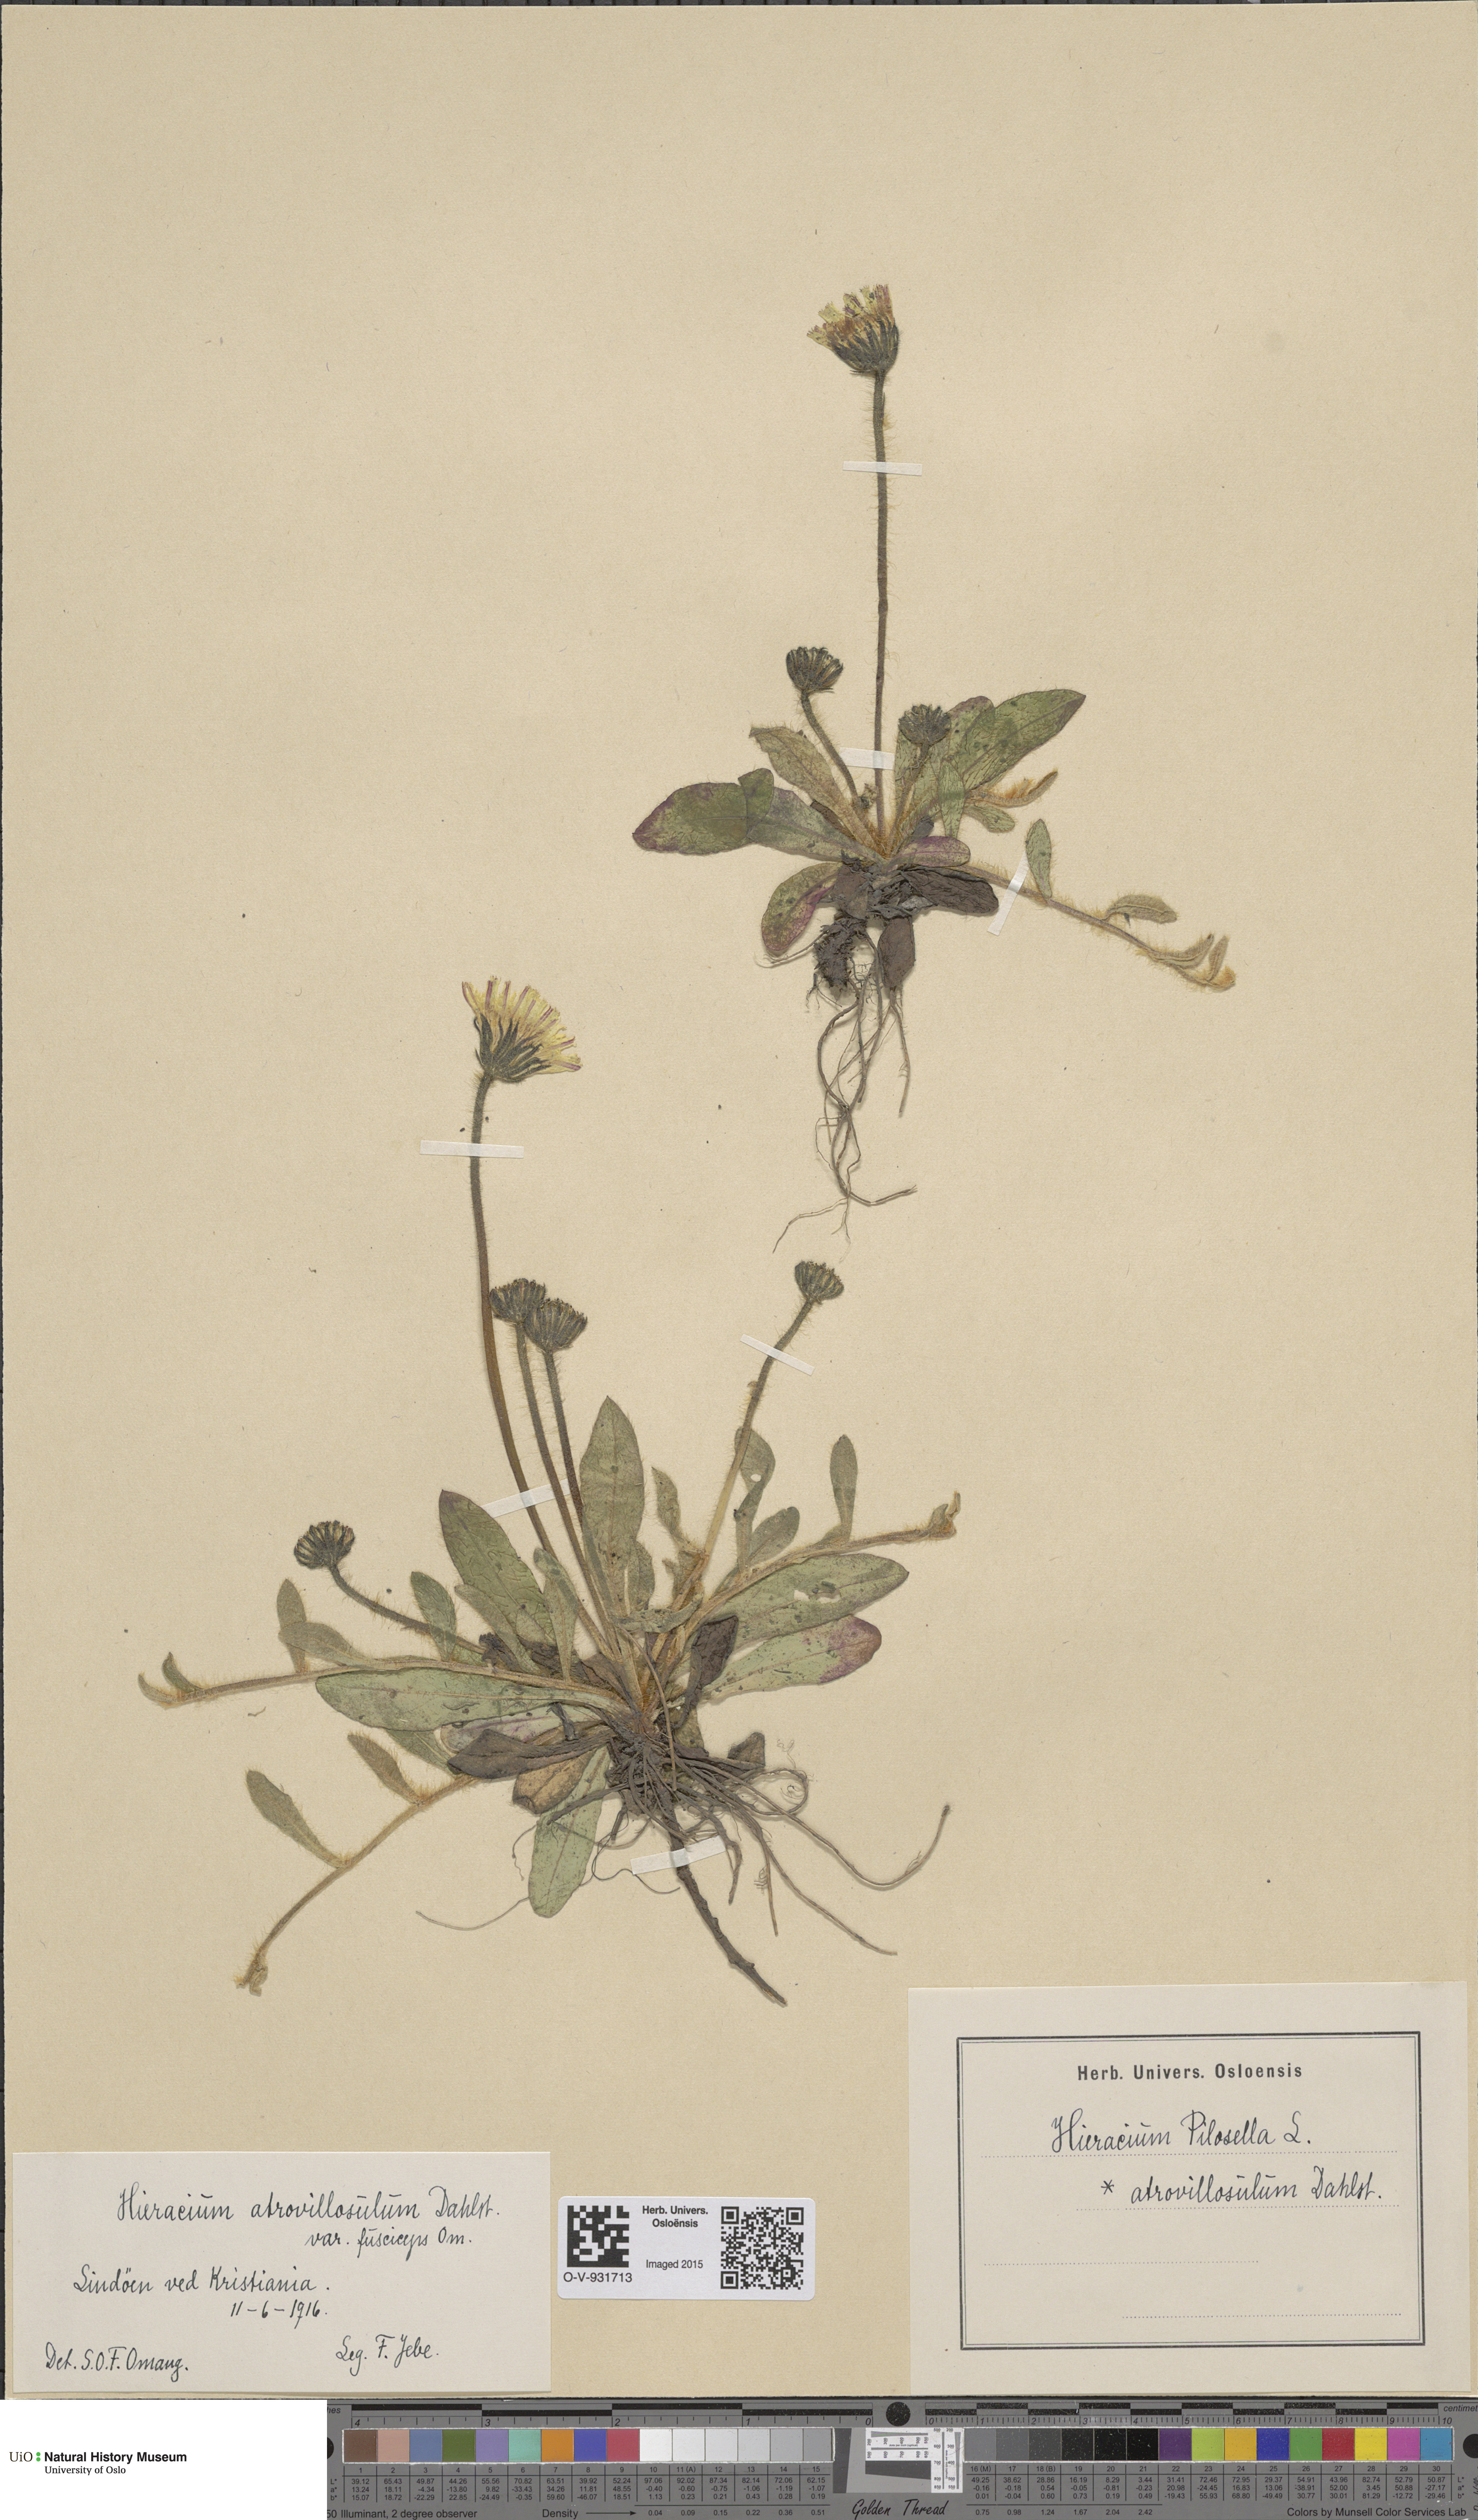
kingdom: Plantae
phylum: Tracheophyta
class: Magnoliopsida
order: Asterales
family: Asteraceae
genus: Pilosella
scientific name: Pilosella officinarum
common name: Mouse-ear hawkweed
